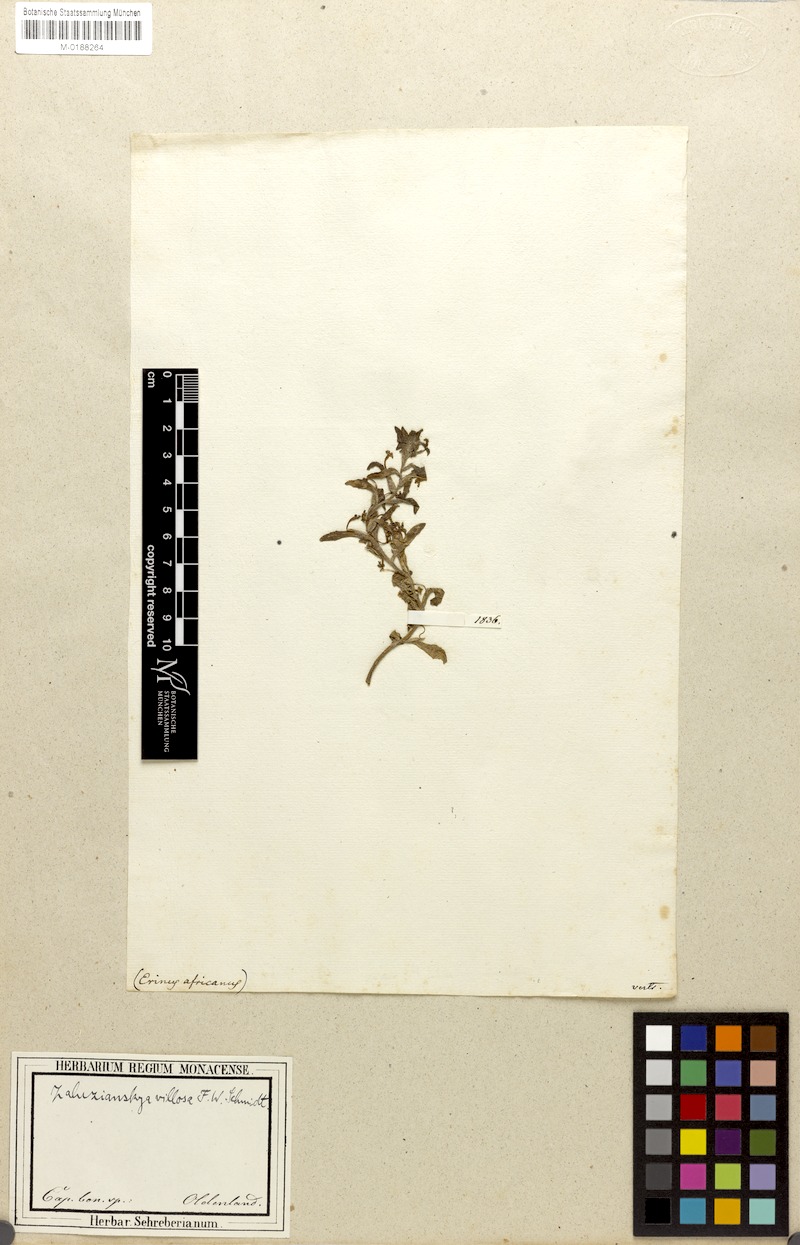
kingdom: Plantae
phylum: Tracheophyta
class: Magnoliopsida
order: Lamiales
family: Scrophulariaceae
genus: Zaluzianskya
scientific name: Zaluzianskya villosa
